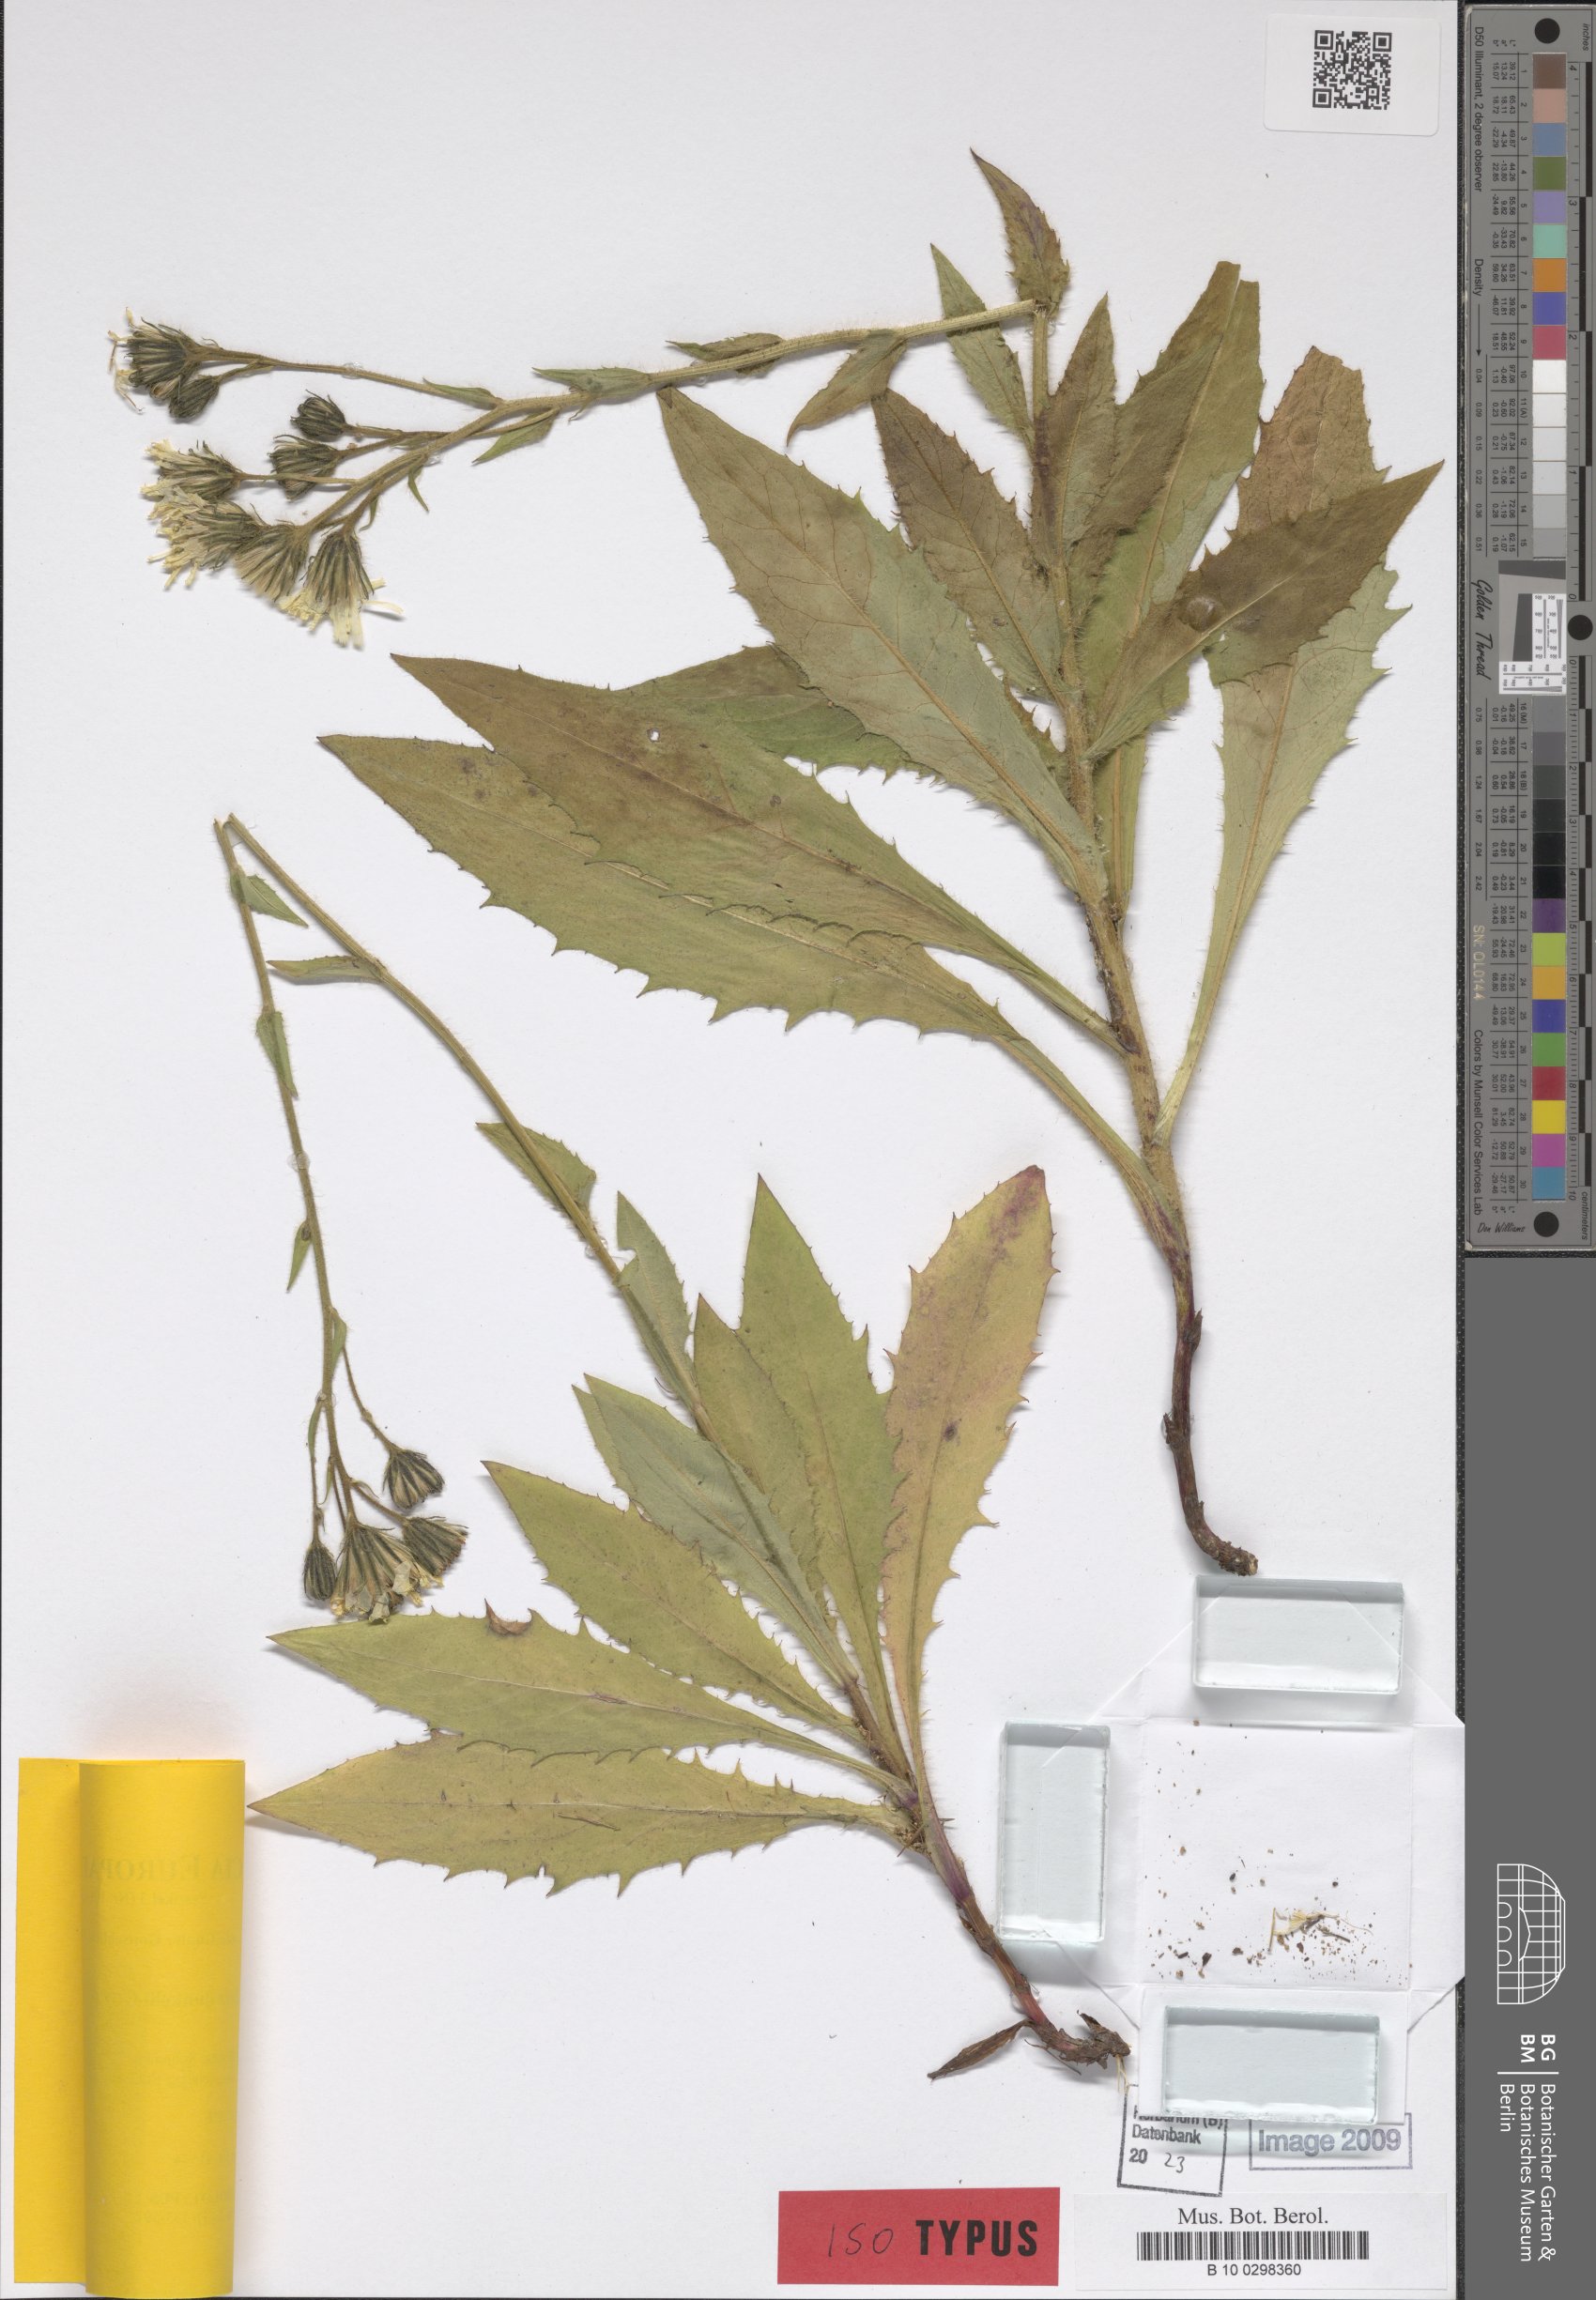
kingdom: Plantae
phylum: Tracheophyta
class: Magnoliopsida
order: Asterales
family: Asteraceae
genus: Hieracium
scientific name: Hieracium dunkelii
